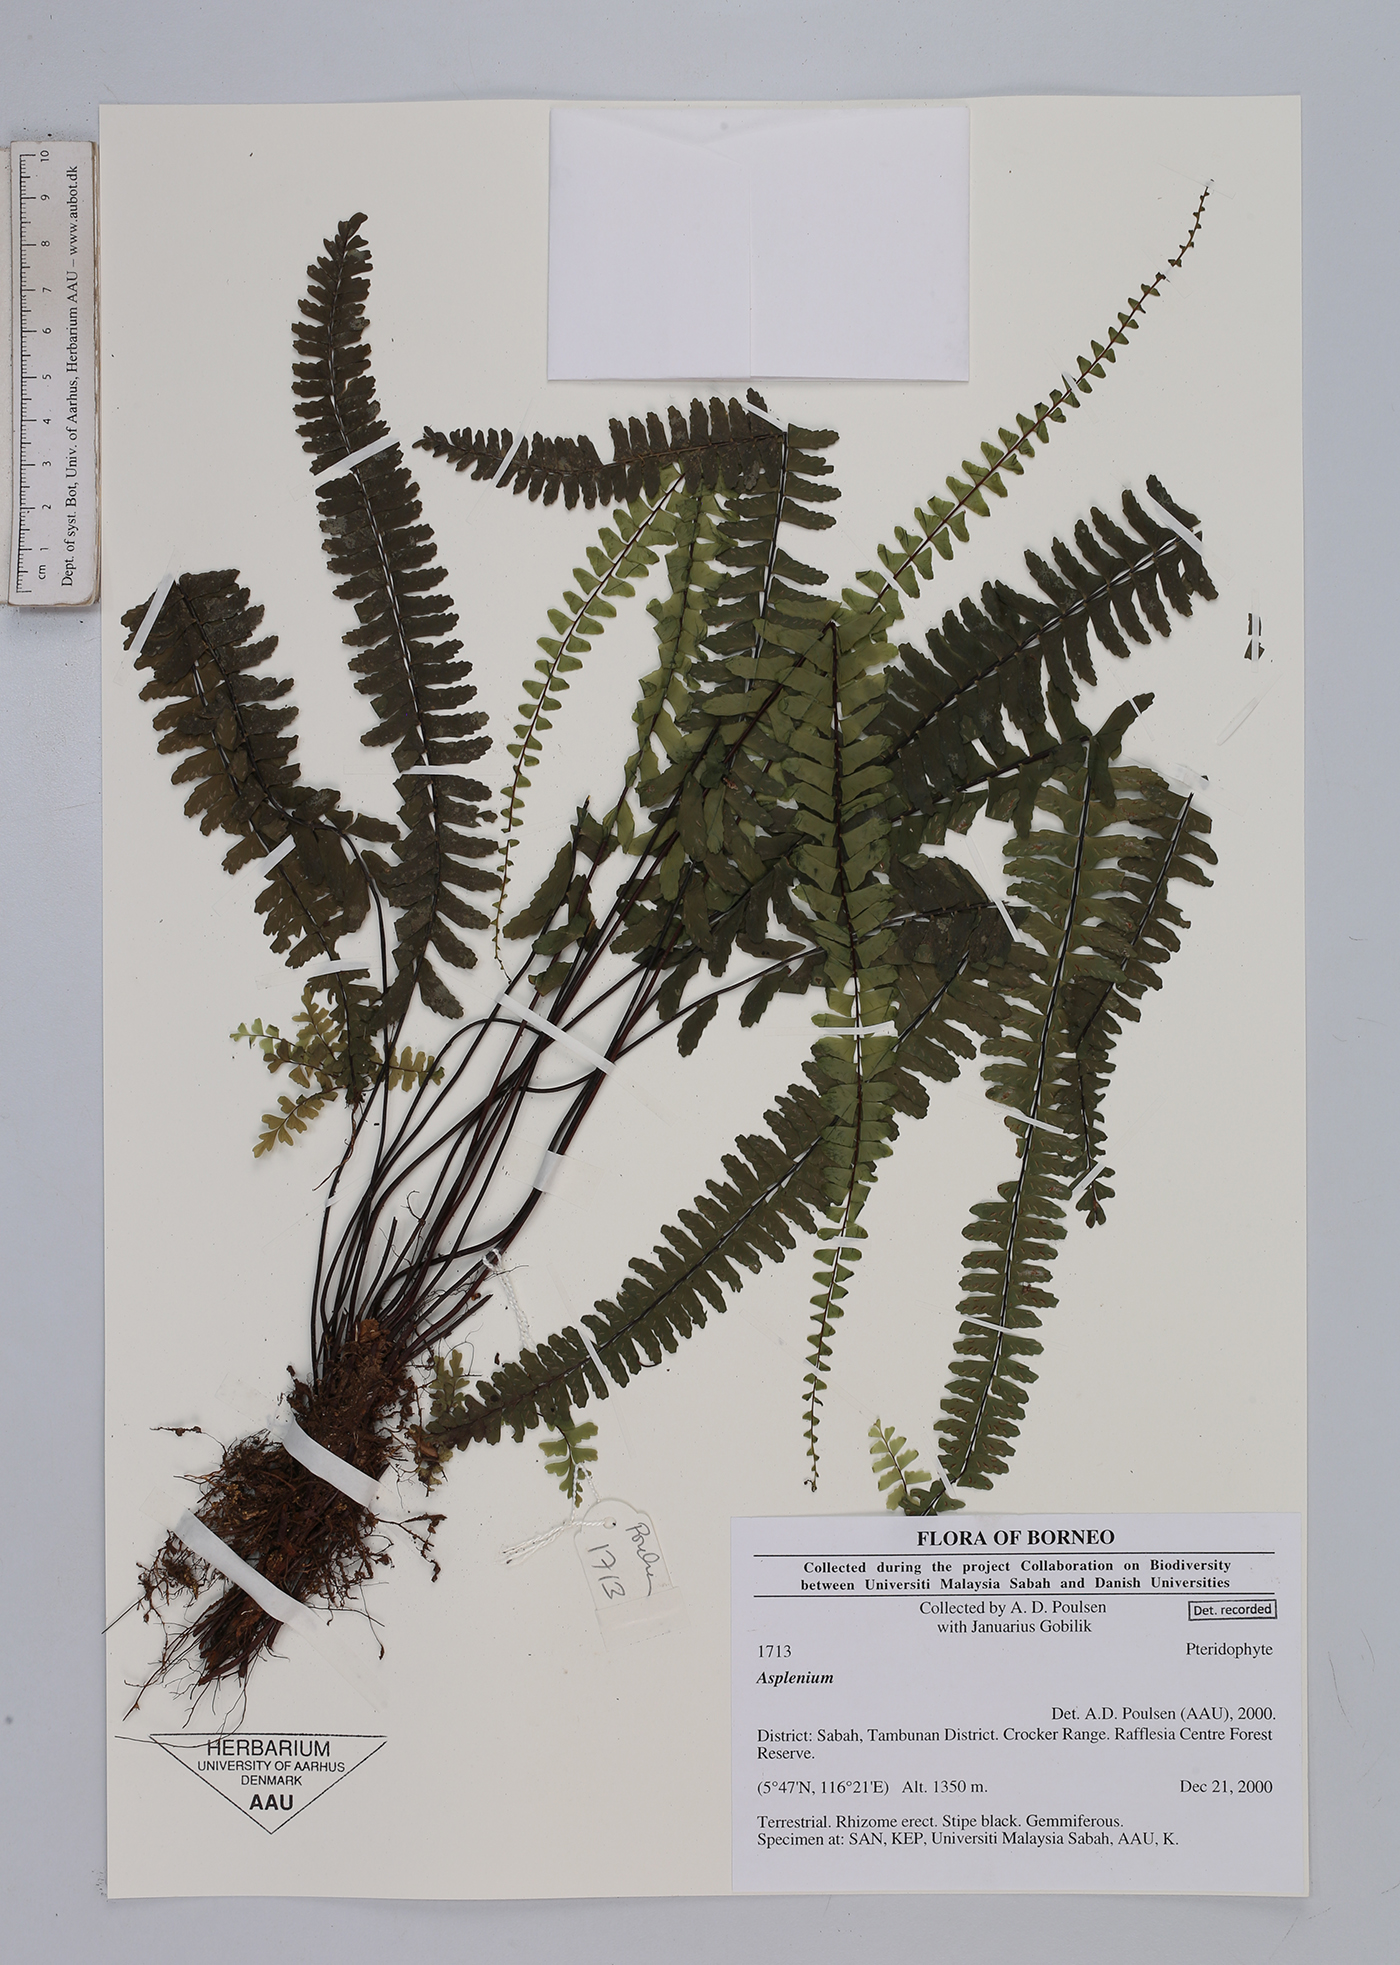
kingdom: Plantae
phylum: Tracheophyta
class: Polypodiopsida
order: Polypodiales
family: Aspleniaceae
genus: Asplenium
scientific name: Asplenium
